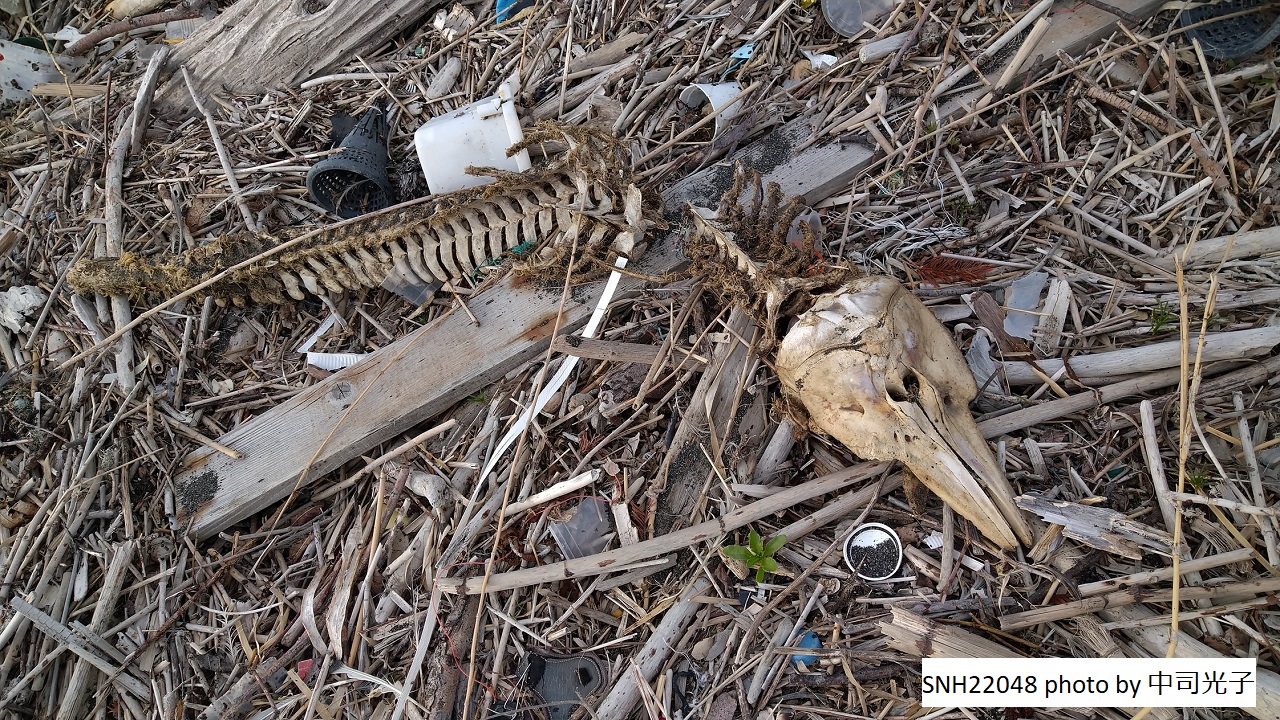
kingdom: Animalia
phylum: Chordata
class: Mammalia
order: Cetacea
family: Phocoenidae
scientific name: Phocoenidae
